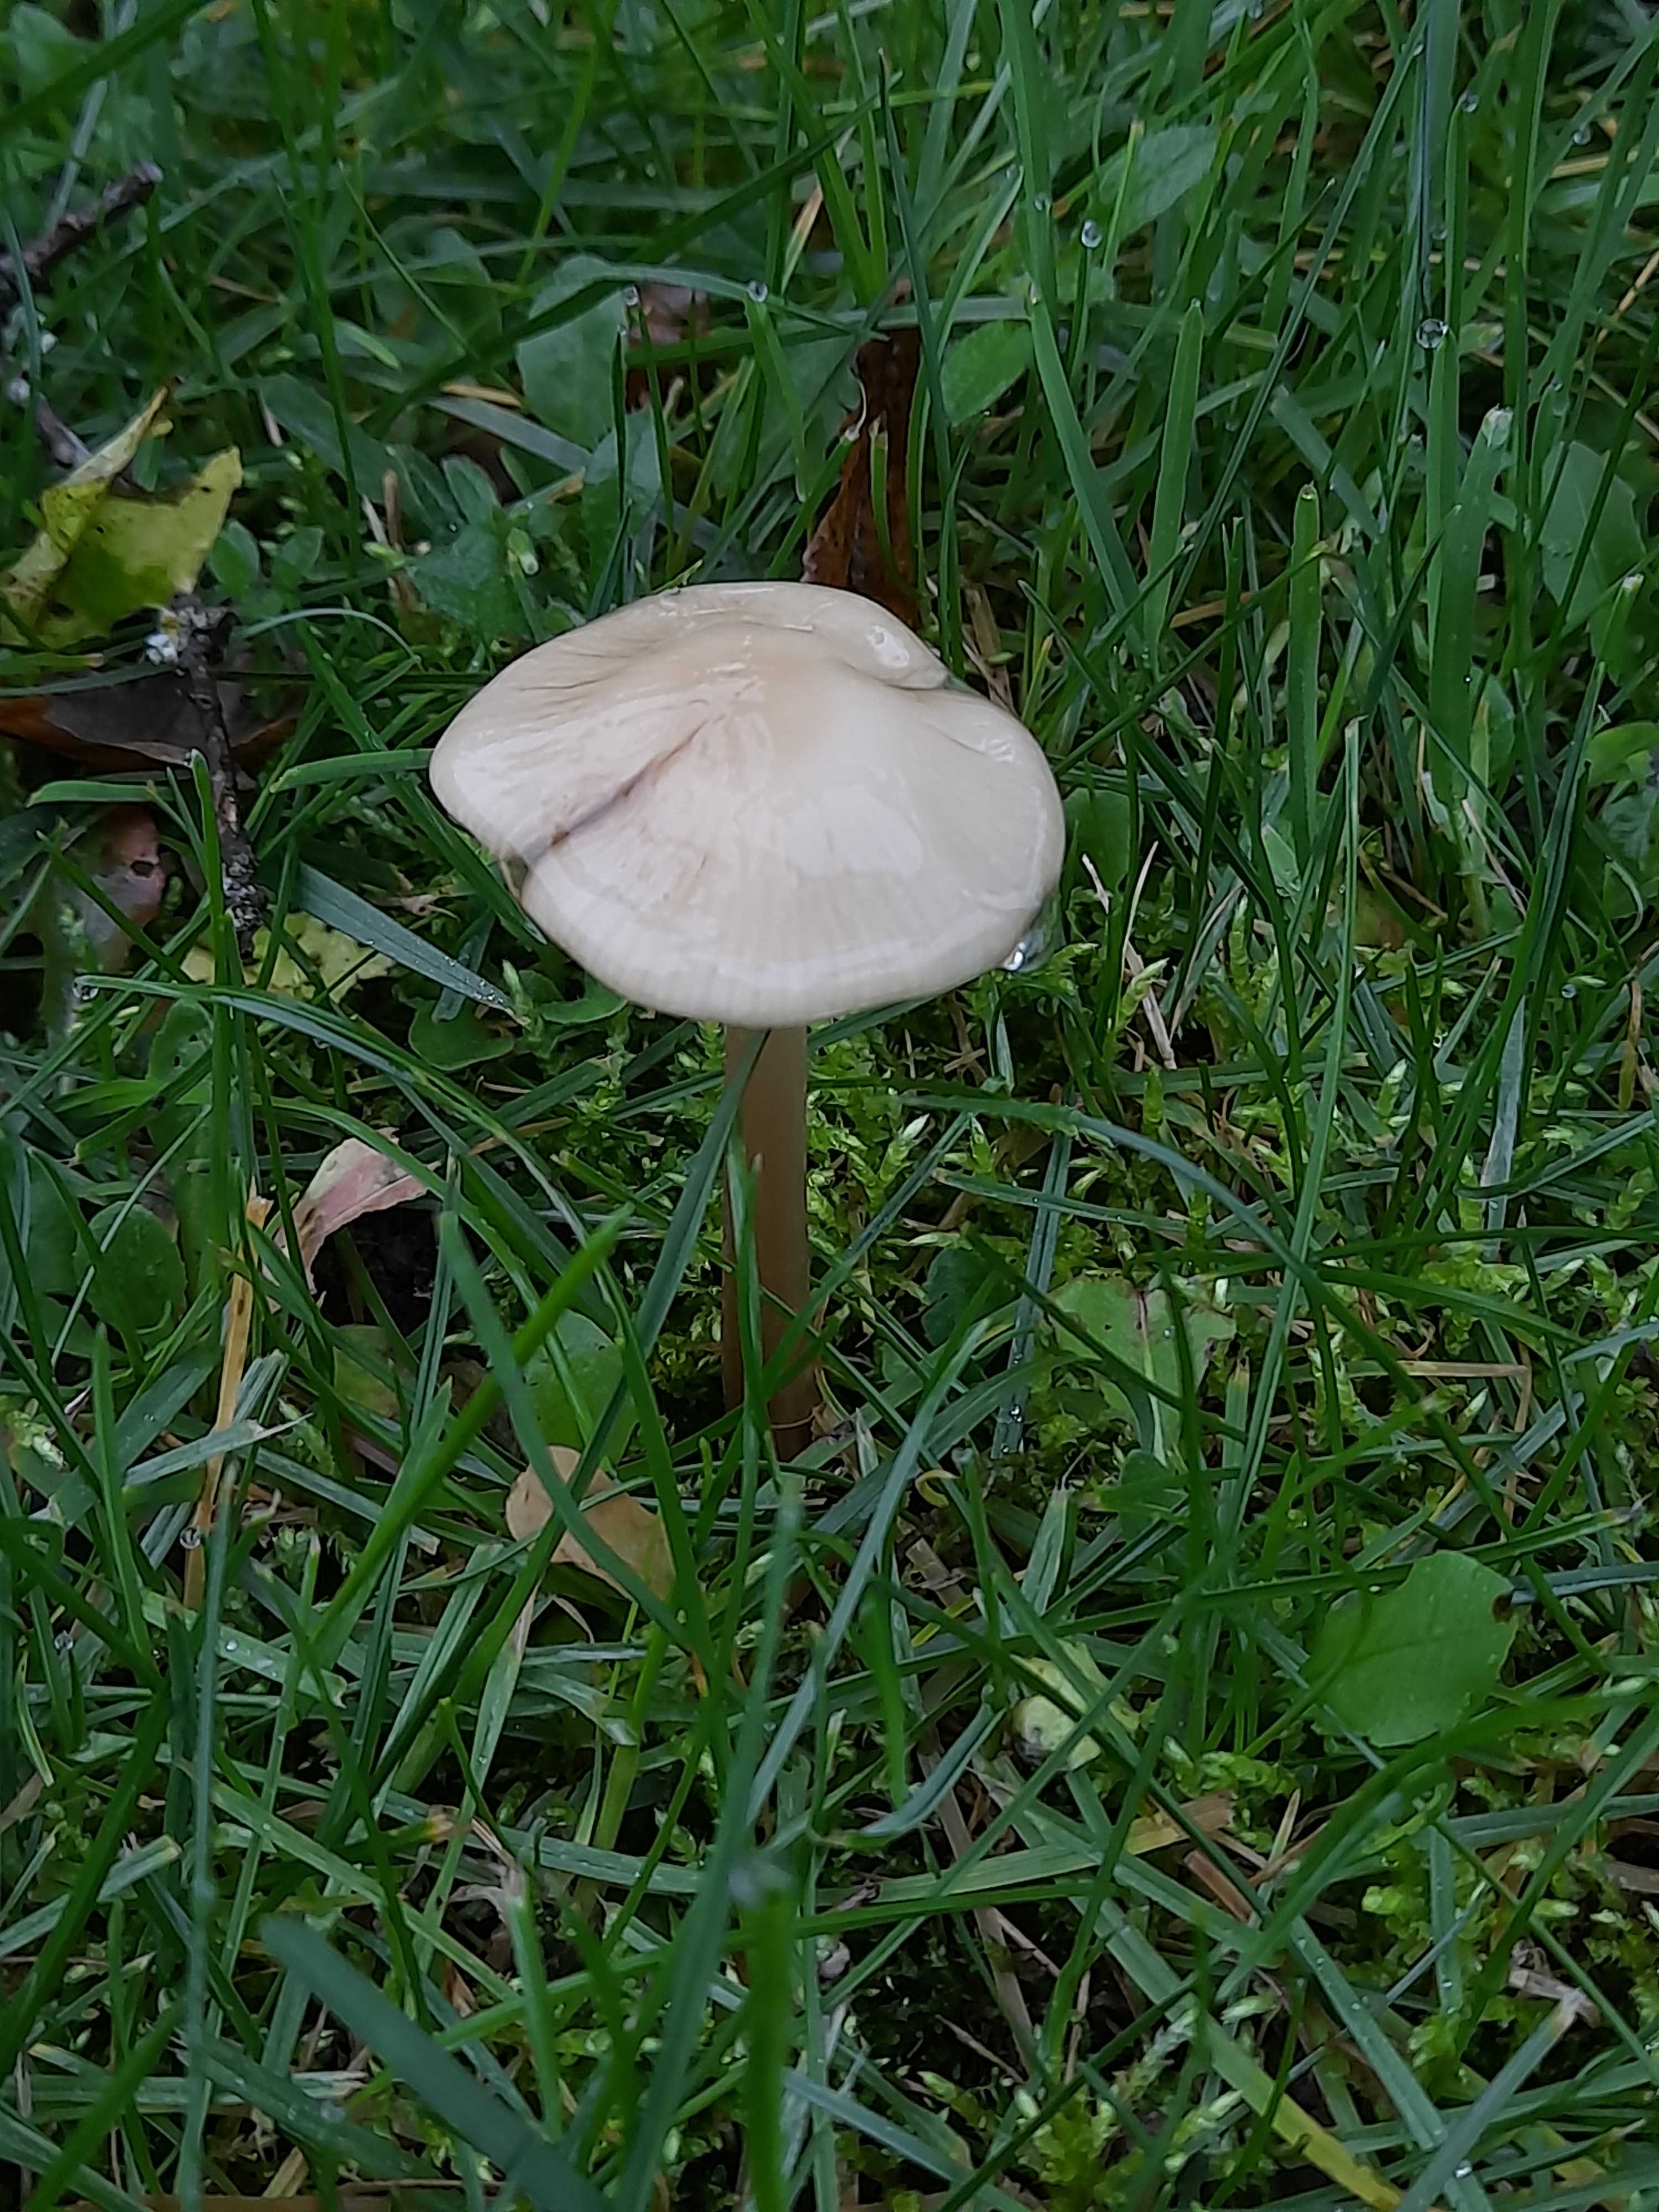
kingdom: Fungi
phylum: Basidiomycota
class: Agaricomycetes
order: Agaricales
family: Physalacriaceae
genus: Hymenopellis
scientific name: Hymenopellis radicata
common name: almindelig pælerodshat
